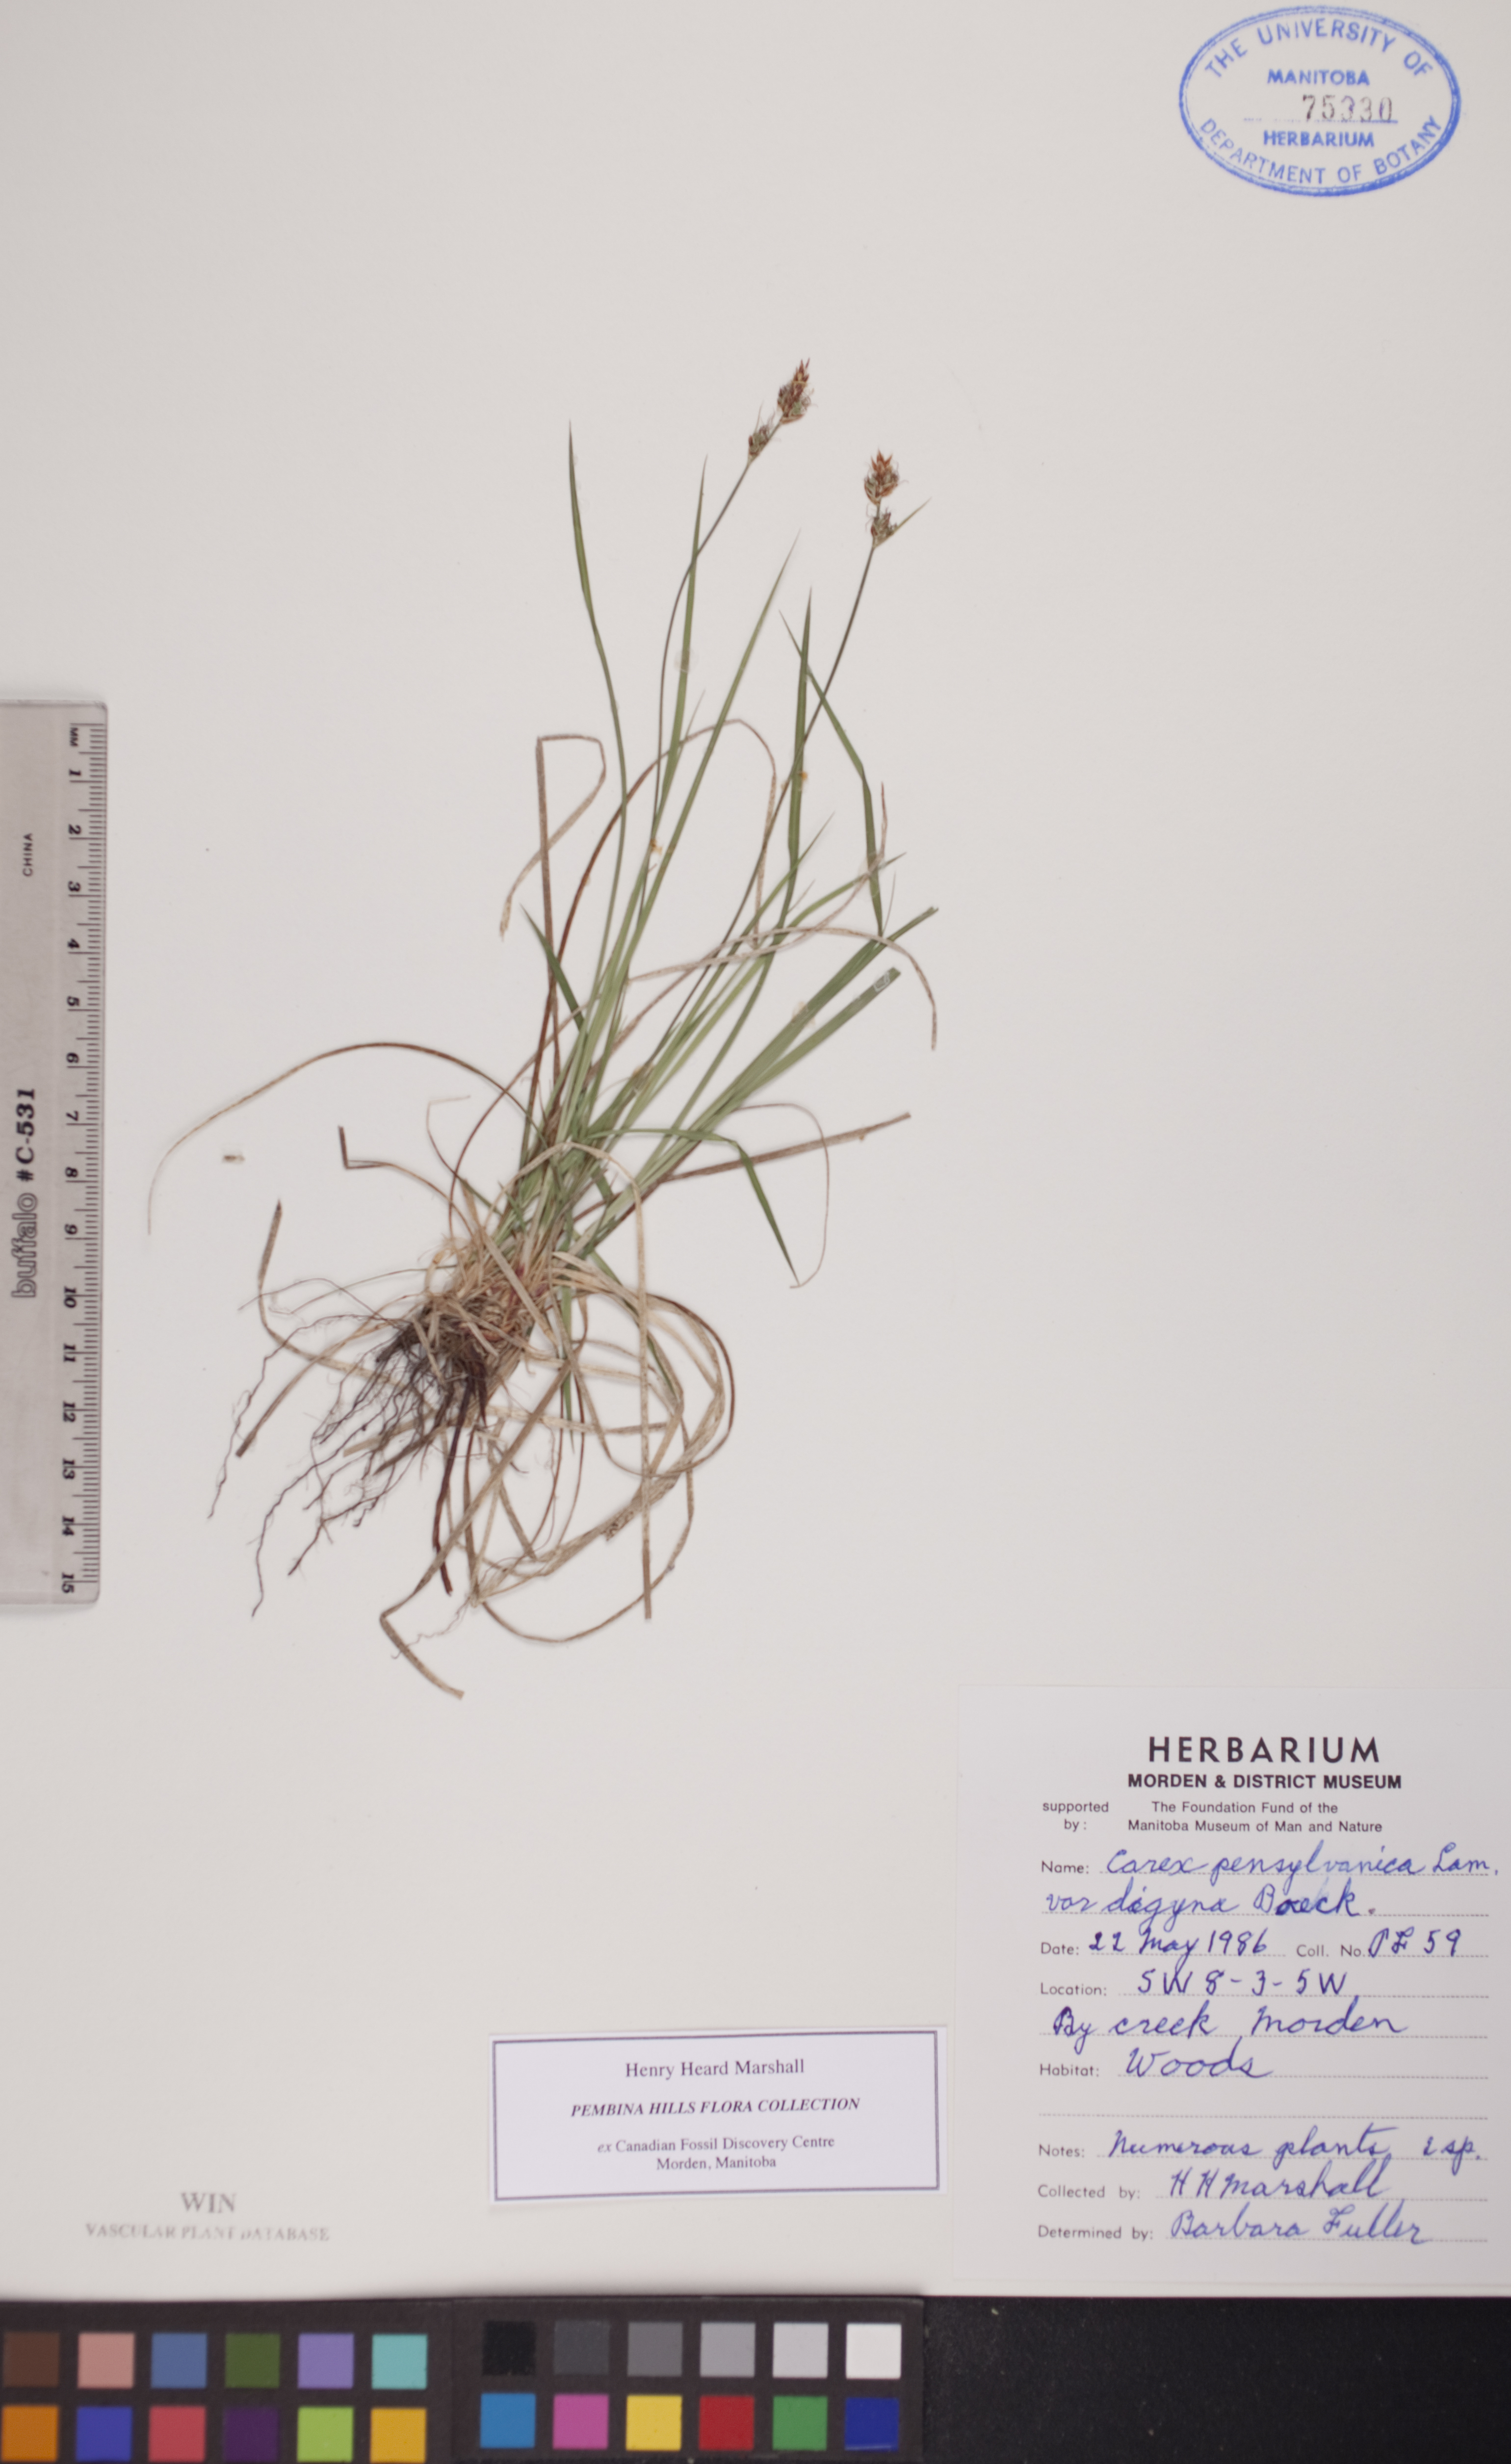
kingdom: Plantae
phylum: Tracheophyta
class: Liliopsida
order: Poales
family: Cyperaceae
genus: Carex
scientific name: Carex inops
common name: Long-stolon sedge
